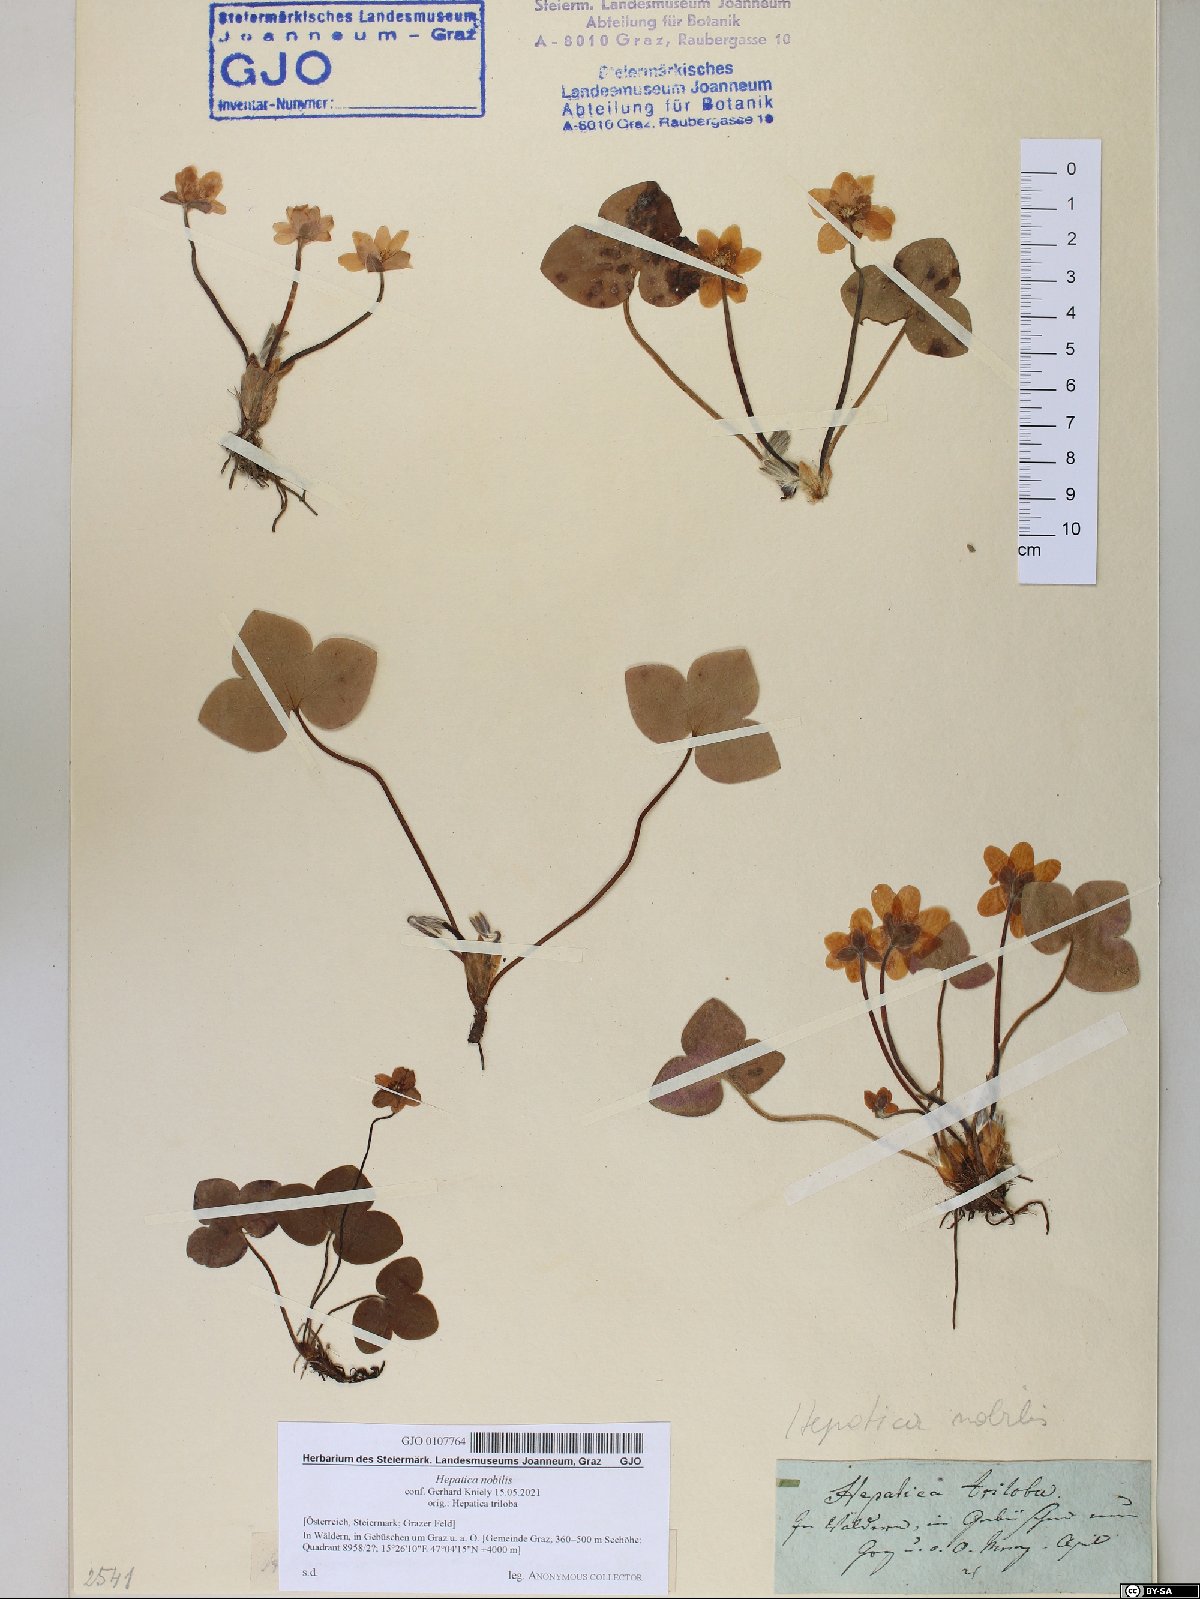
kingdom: Plantae
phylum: Tracheophyta
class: Magnoliopsida
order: Ranunculales
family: Ranunculaceae
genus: Hepatica
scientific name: Hepatica nobilis
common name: Liverleaf
